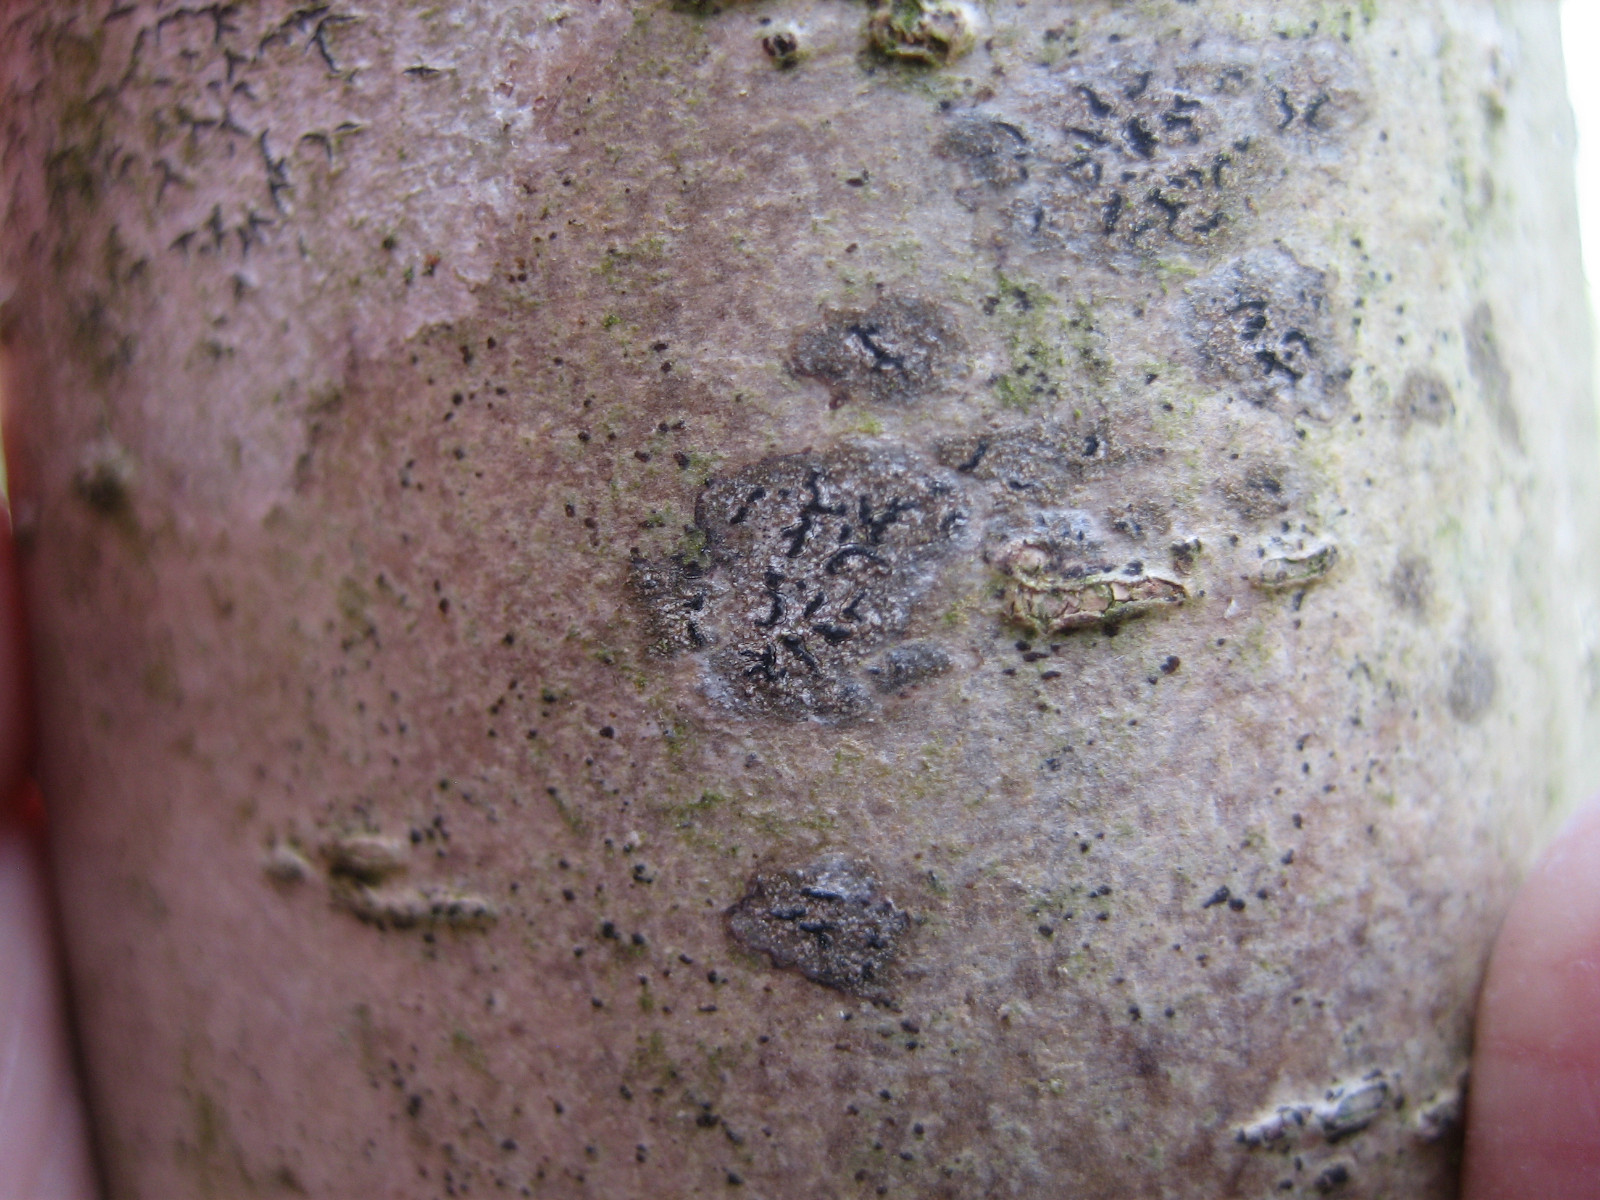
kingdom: Fungi
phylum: Ascomycota
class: Arthoniomycetes
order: Arthoniales
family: Roccellaceae
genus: Pseudoschismatomma
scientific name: Pseudoschismatomma rufescens
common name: brun bogstavlav
